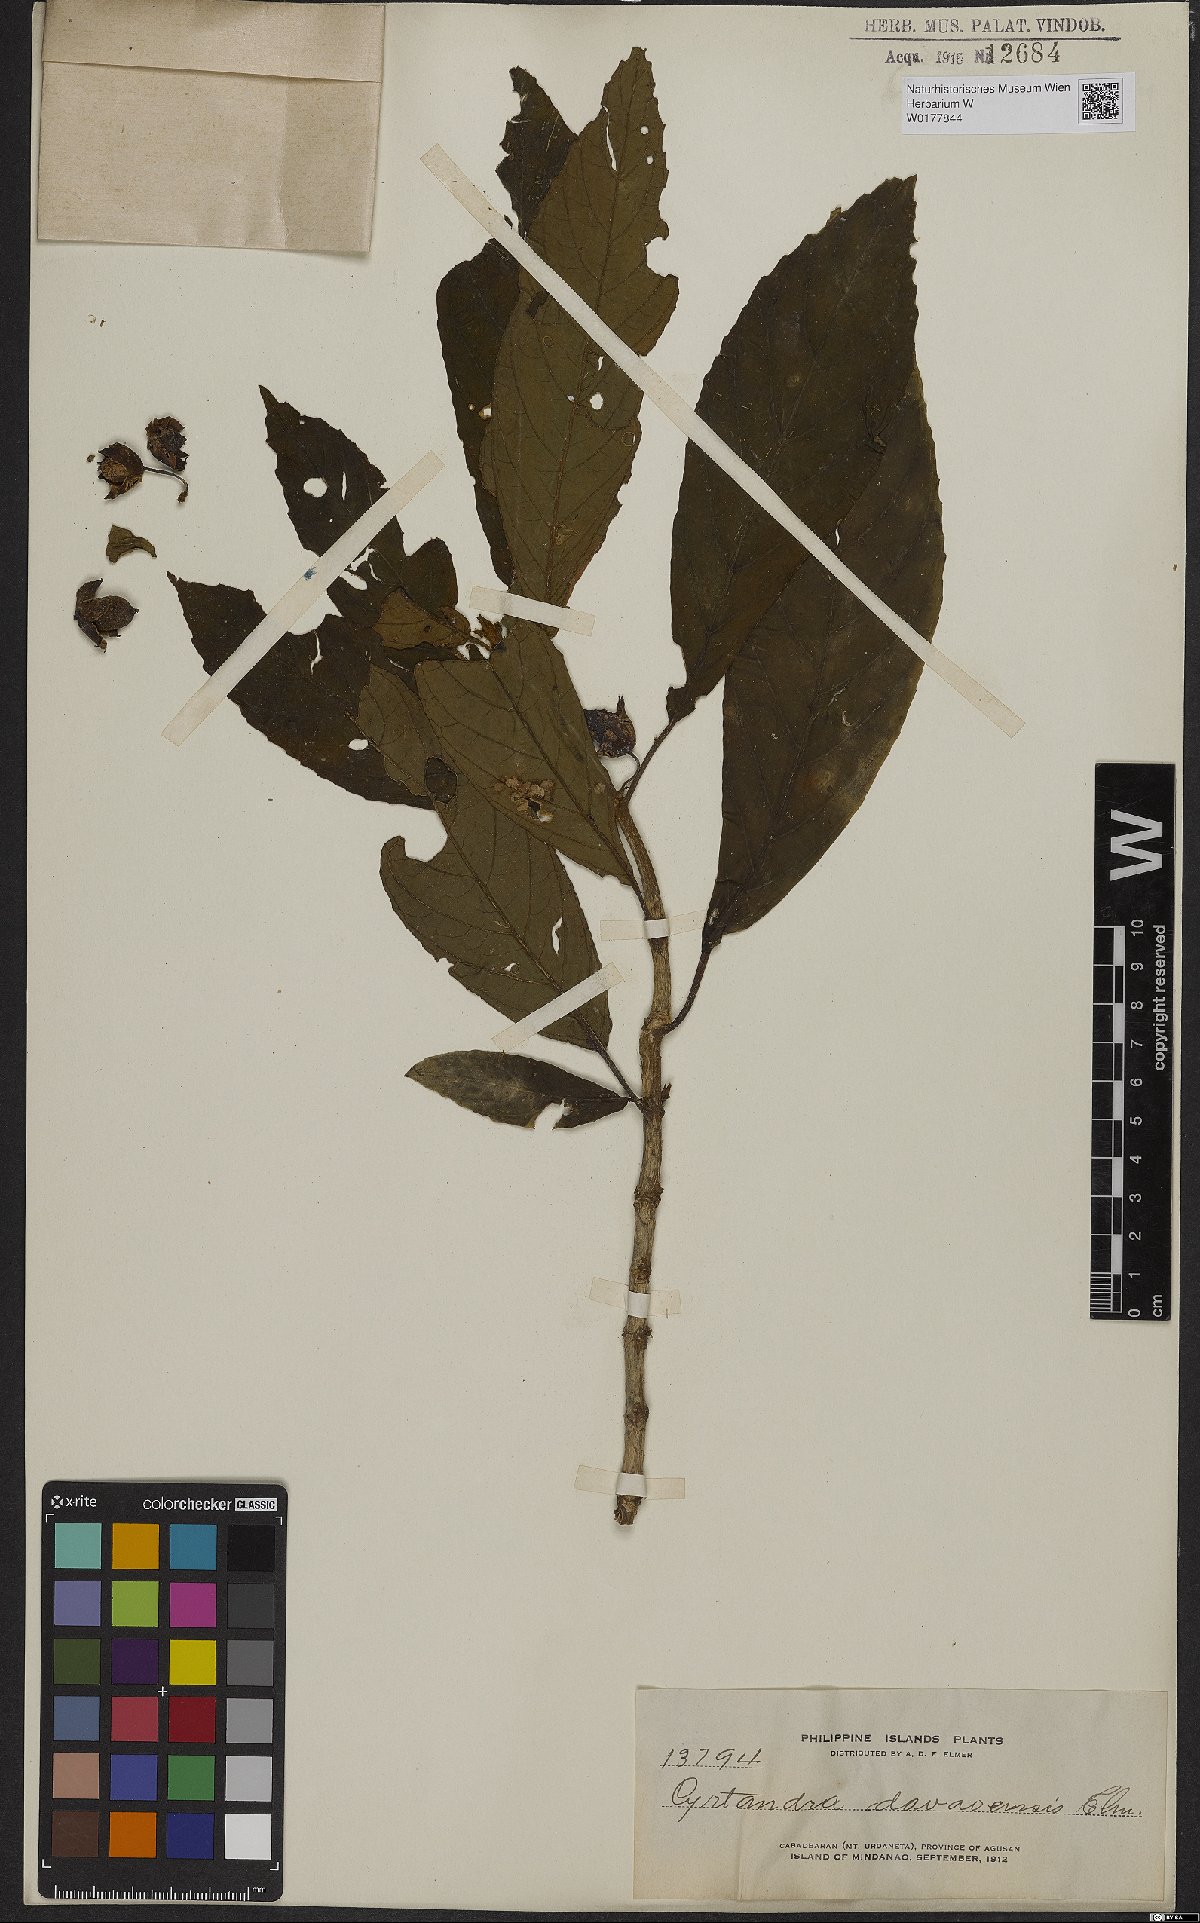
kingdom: Plantae
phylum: Tracheophyta
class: Magnoliopsida
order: Lamiales
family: Gesneriaceae
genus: Cyrtandra
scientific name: Cyrtandra davaoensis
